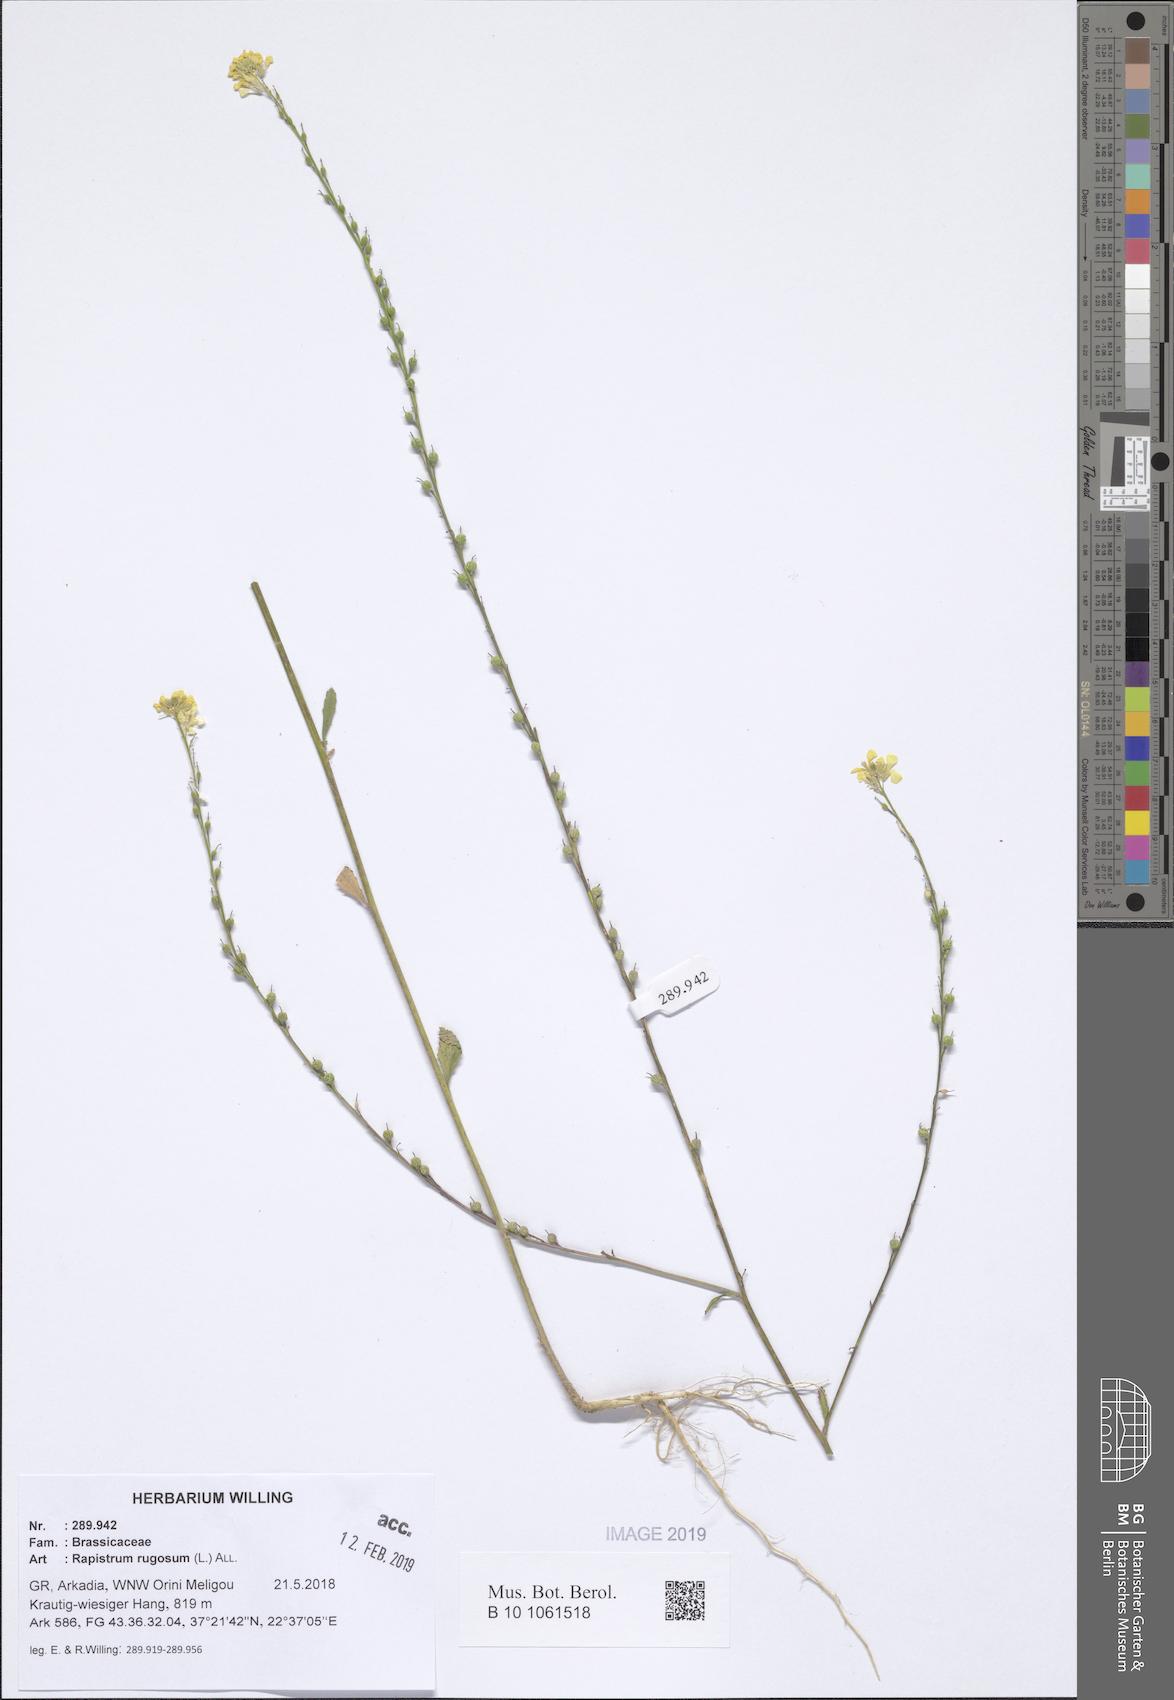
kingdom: Plantae
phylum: Tracheophyta
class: Magnoliopsida
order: Brassicales
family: Brassicaceae
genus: Rapistrum
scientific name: Rapistrum rugosum
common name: Annual bastardcabbage
